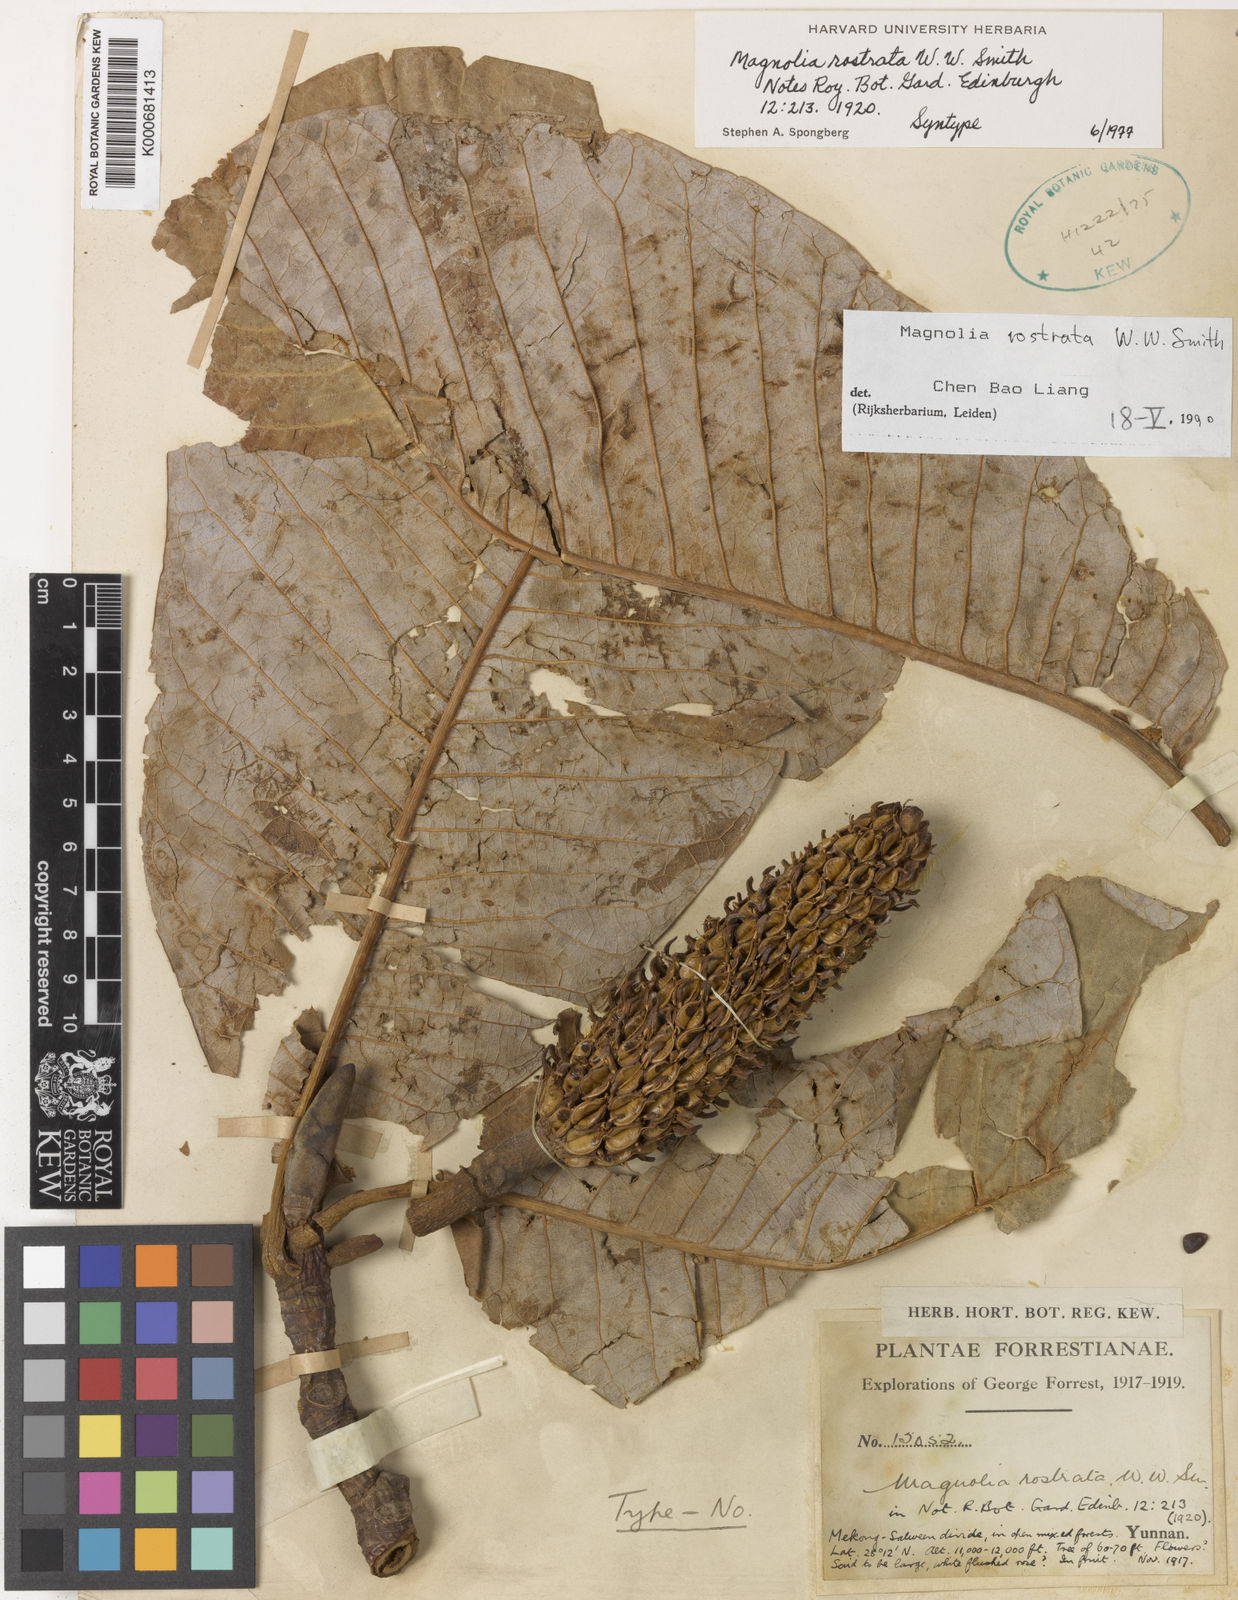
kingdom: Plantae
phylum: Tracheophyta
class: Magnoliopsida
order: Magnoliales
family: Magnoliaceae
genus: Magnolia
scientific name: Magnolia rostrata
